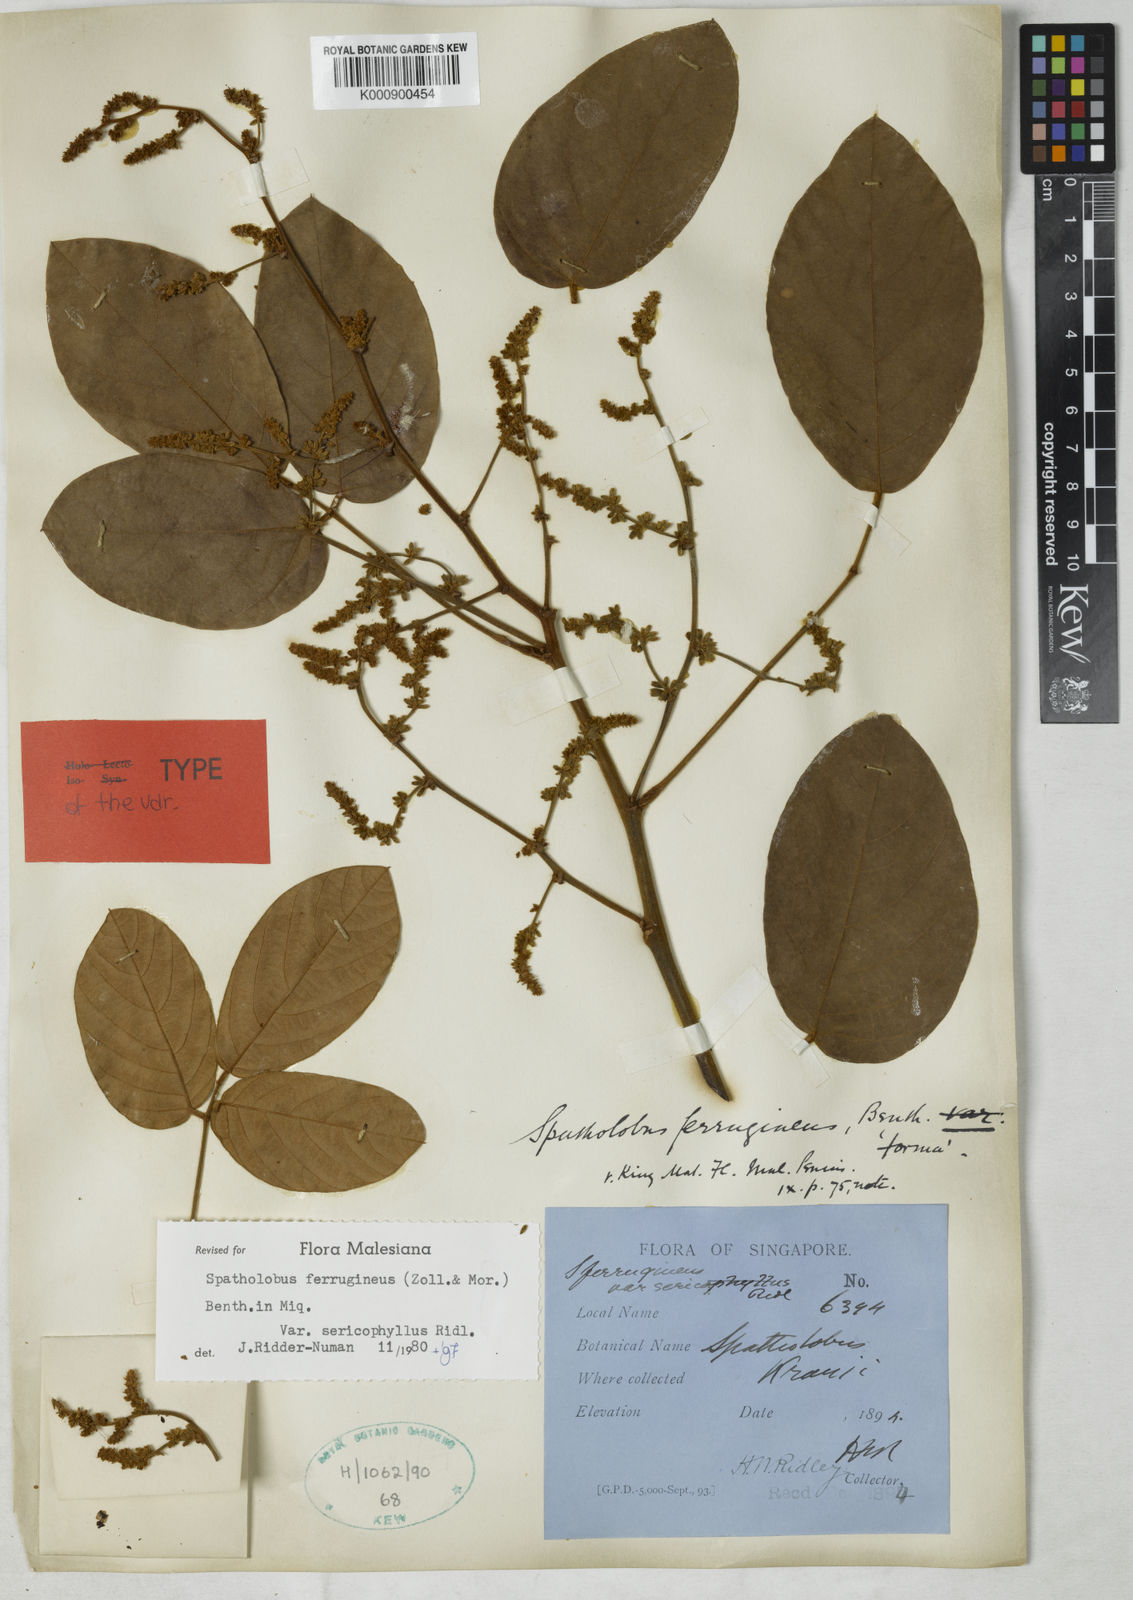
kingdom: Plantae
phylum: Tracheophyta
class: Magnoliopsida
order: Fabales
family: Fabaceae
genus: Spatholobus
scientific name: Spatholobus ferrugineus
